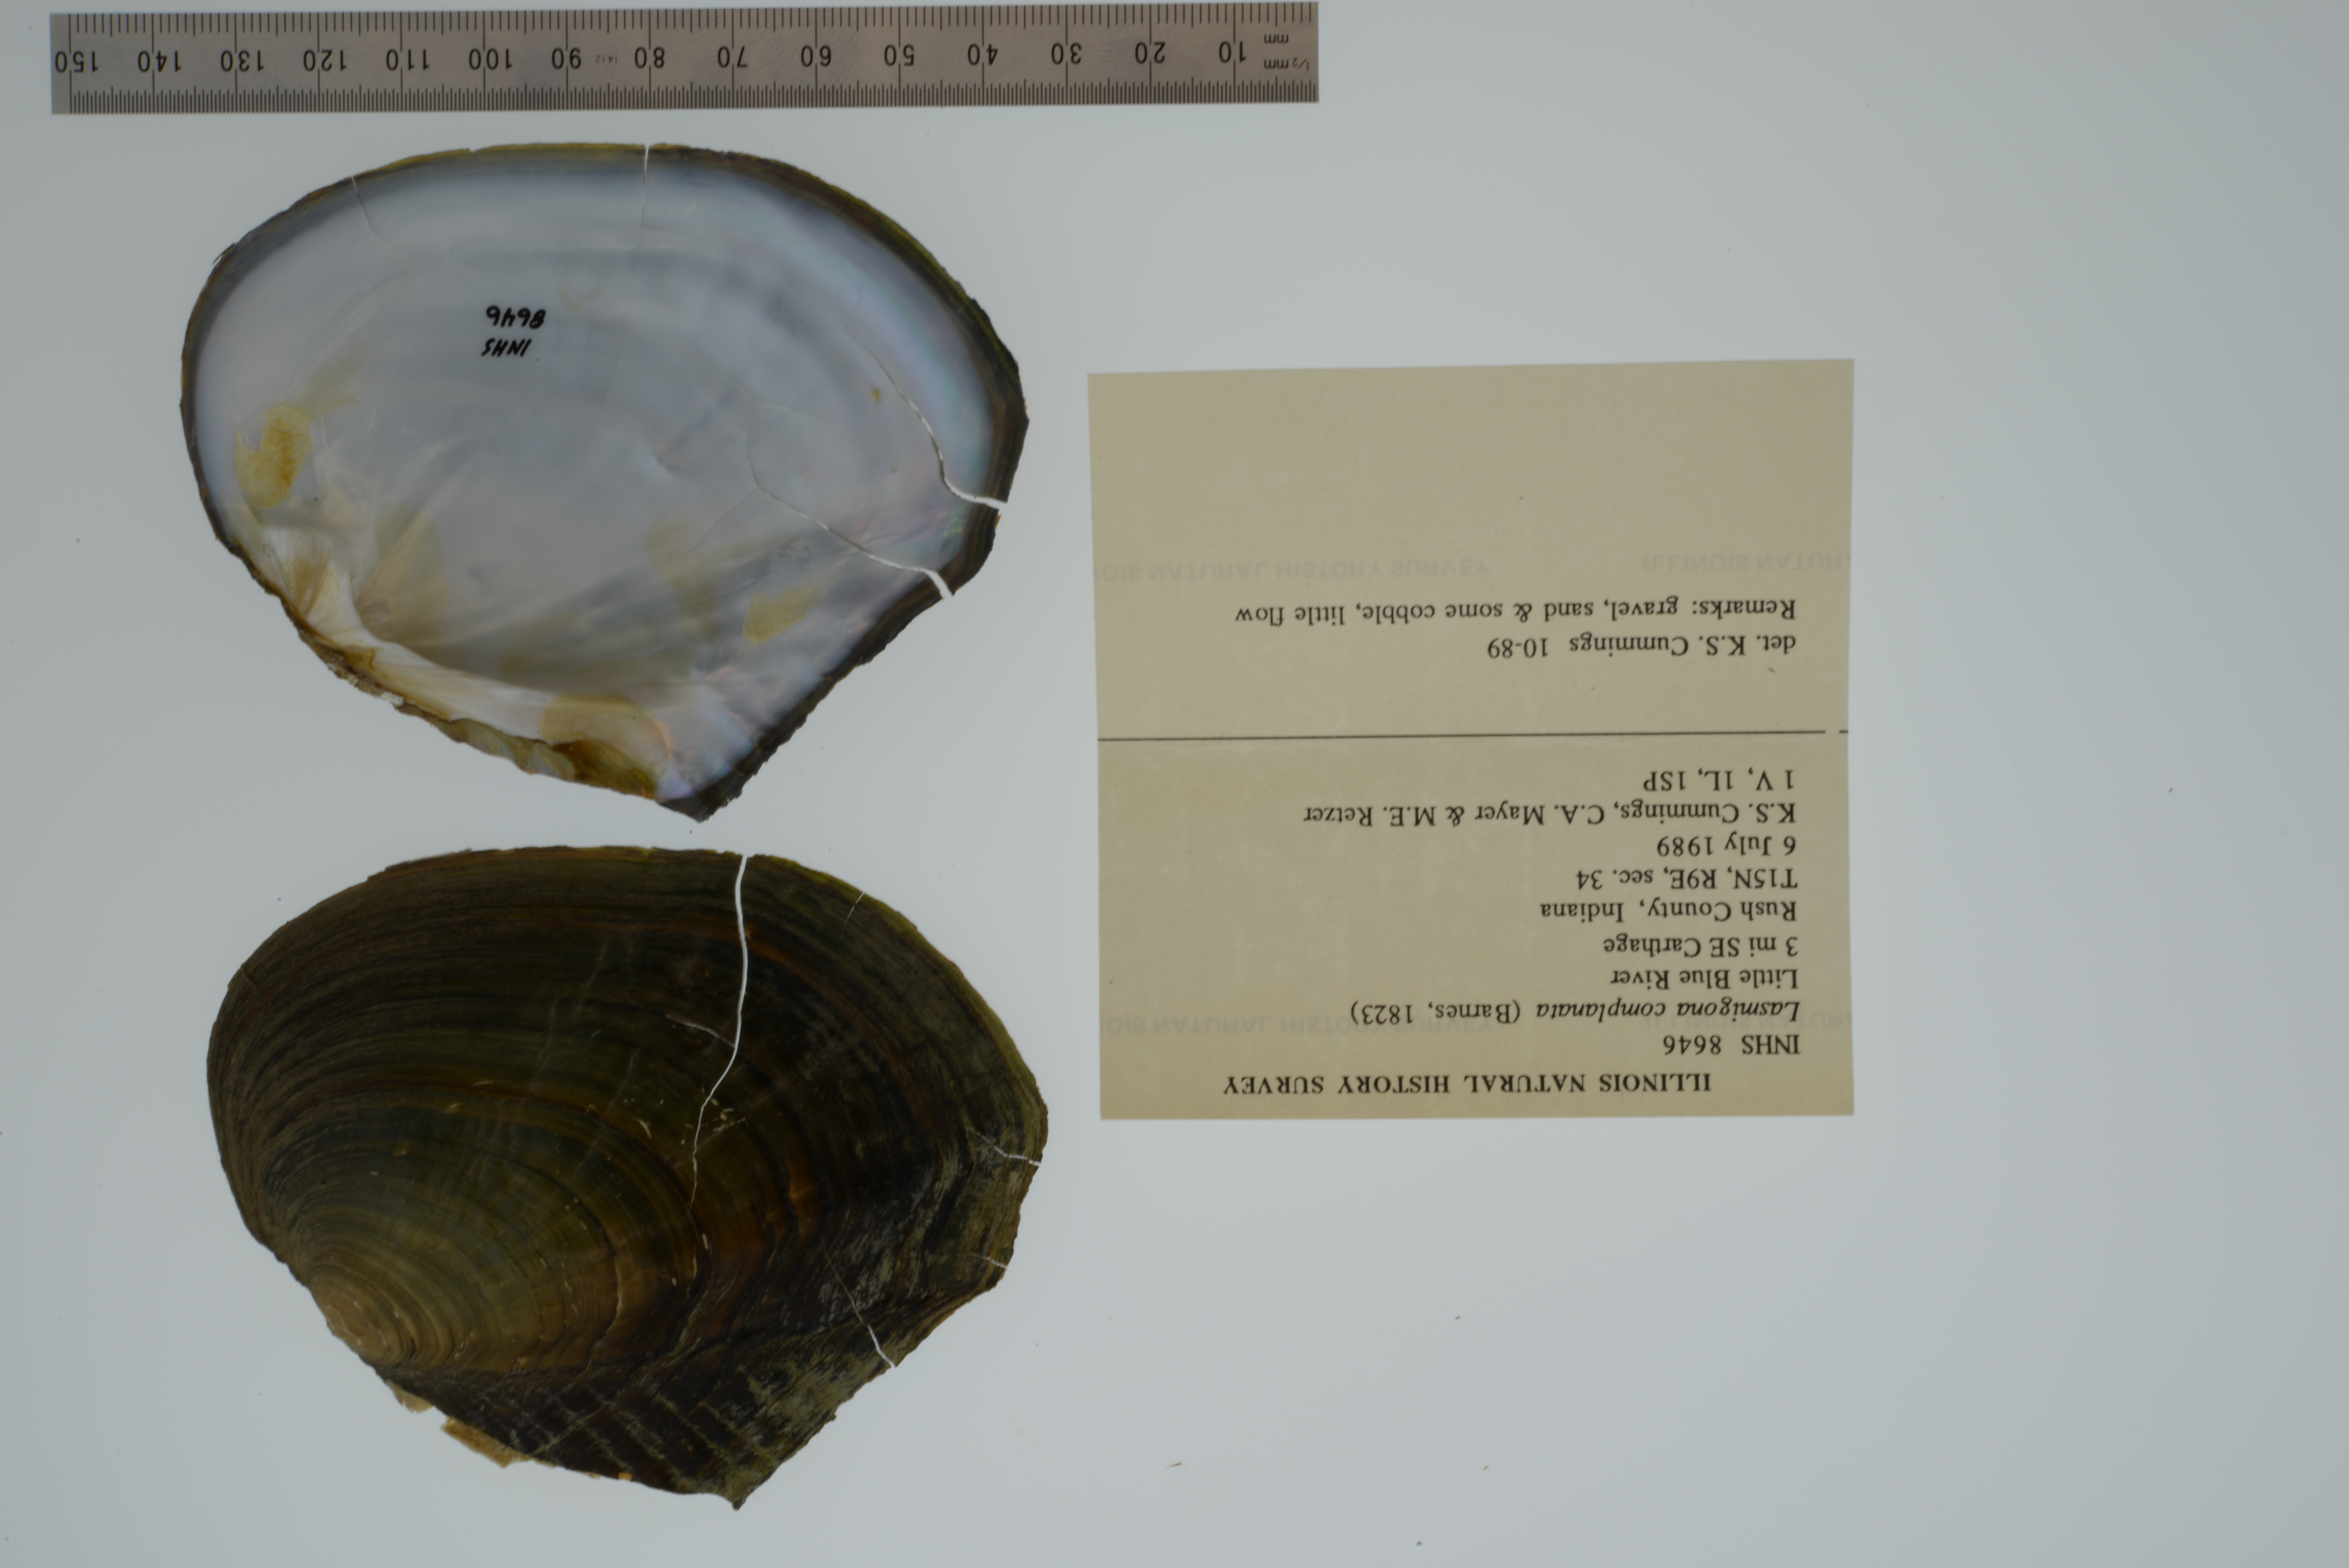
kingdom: Animalia
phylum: Mollusca
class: Bivalvia
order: Unionida
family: Unionidae
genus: Lasmigona
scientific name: Lasmigona complanata
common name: White heelsplitter
